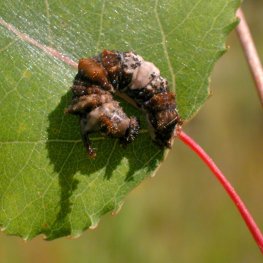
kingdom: Animalia
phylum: Arthropoda
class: Insecta
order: Lepidoptera
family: Nymphalidae
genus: Limenitis
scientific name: Limenitis archippus
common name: Viceroy
